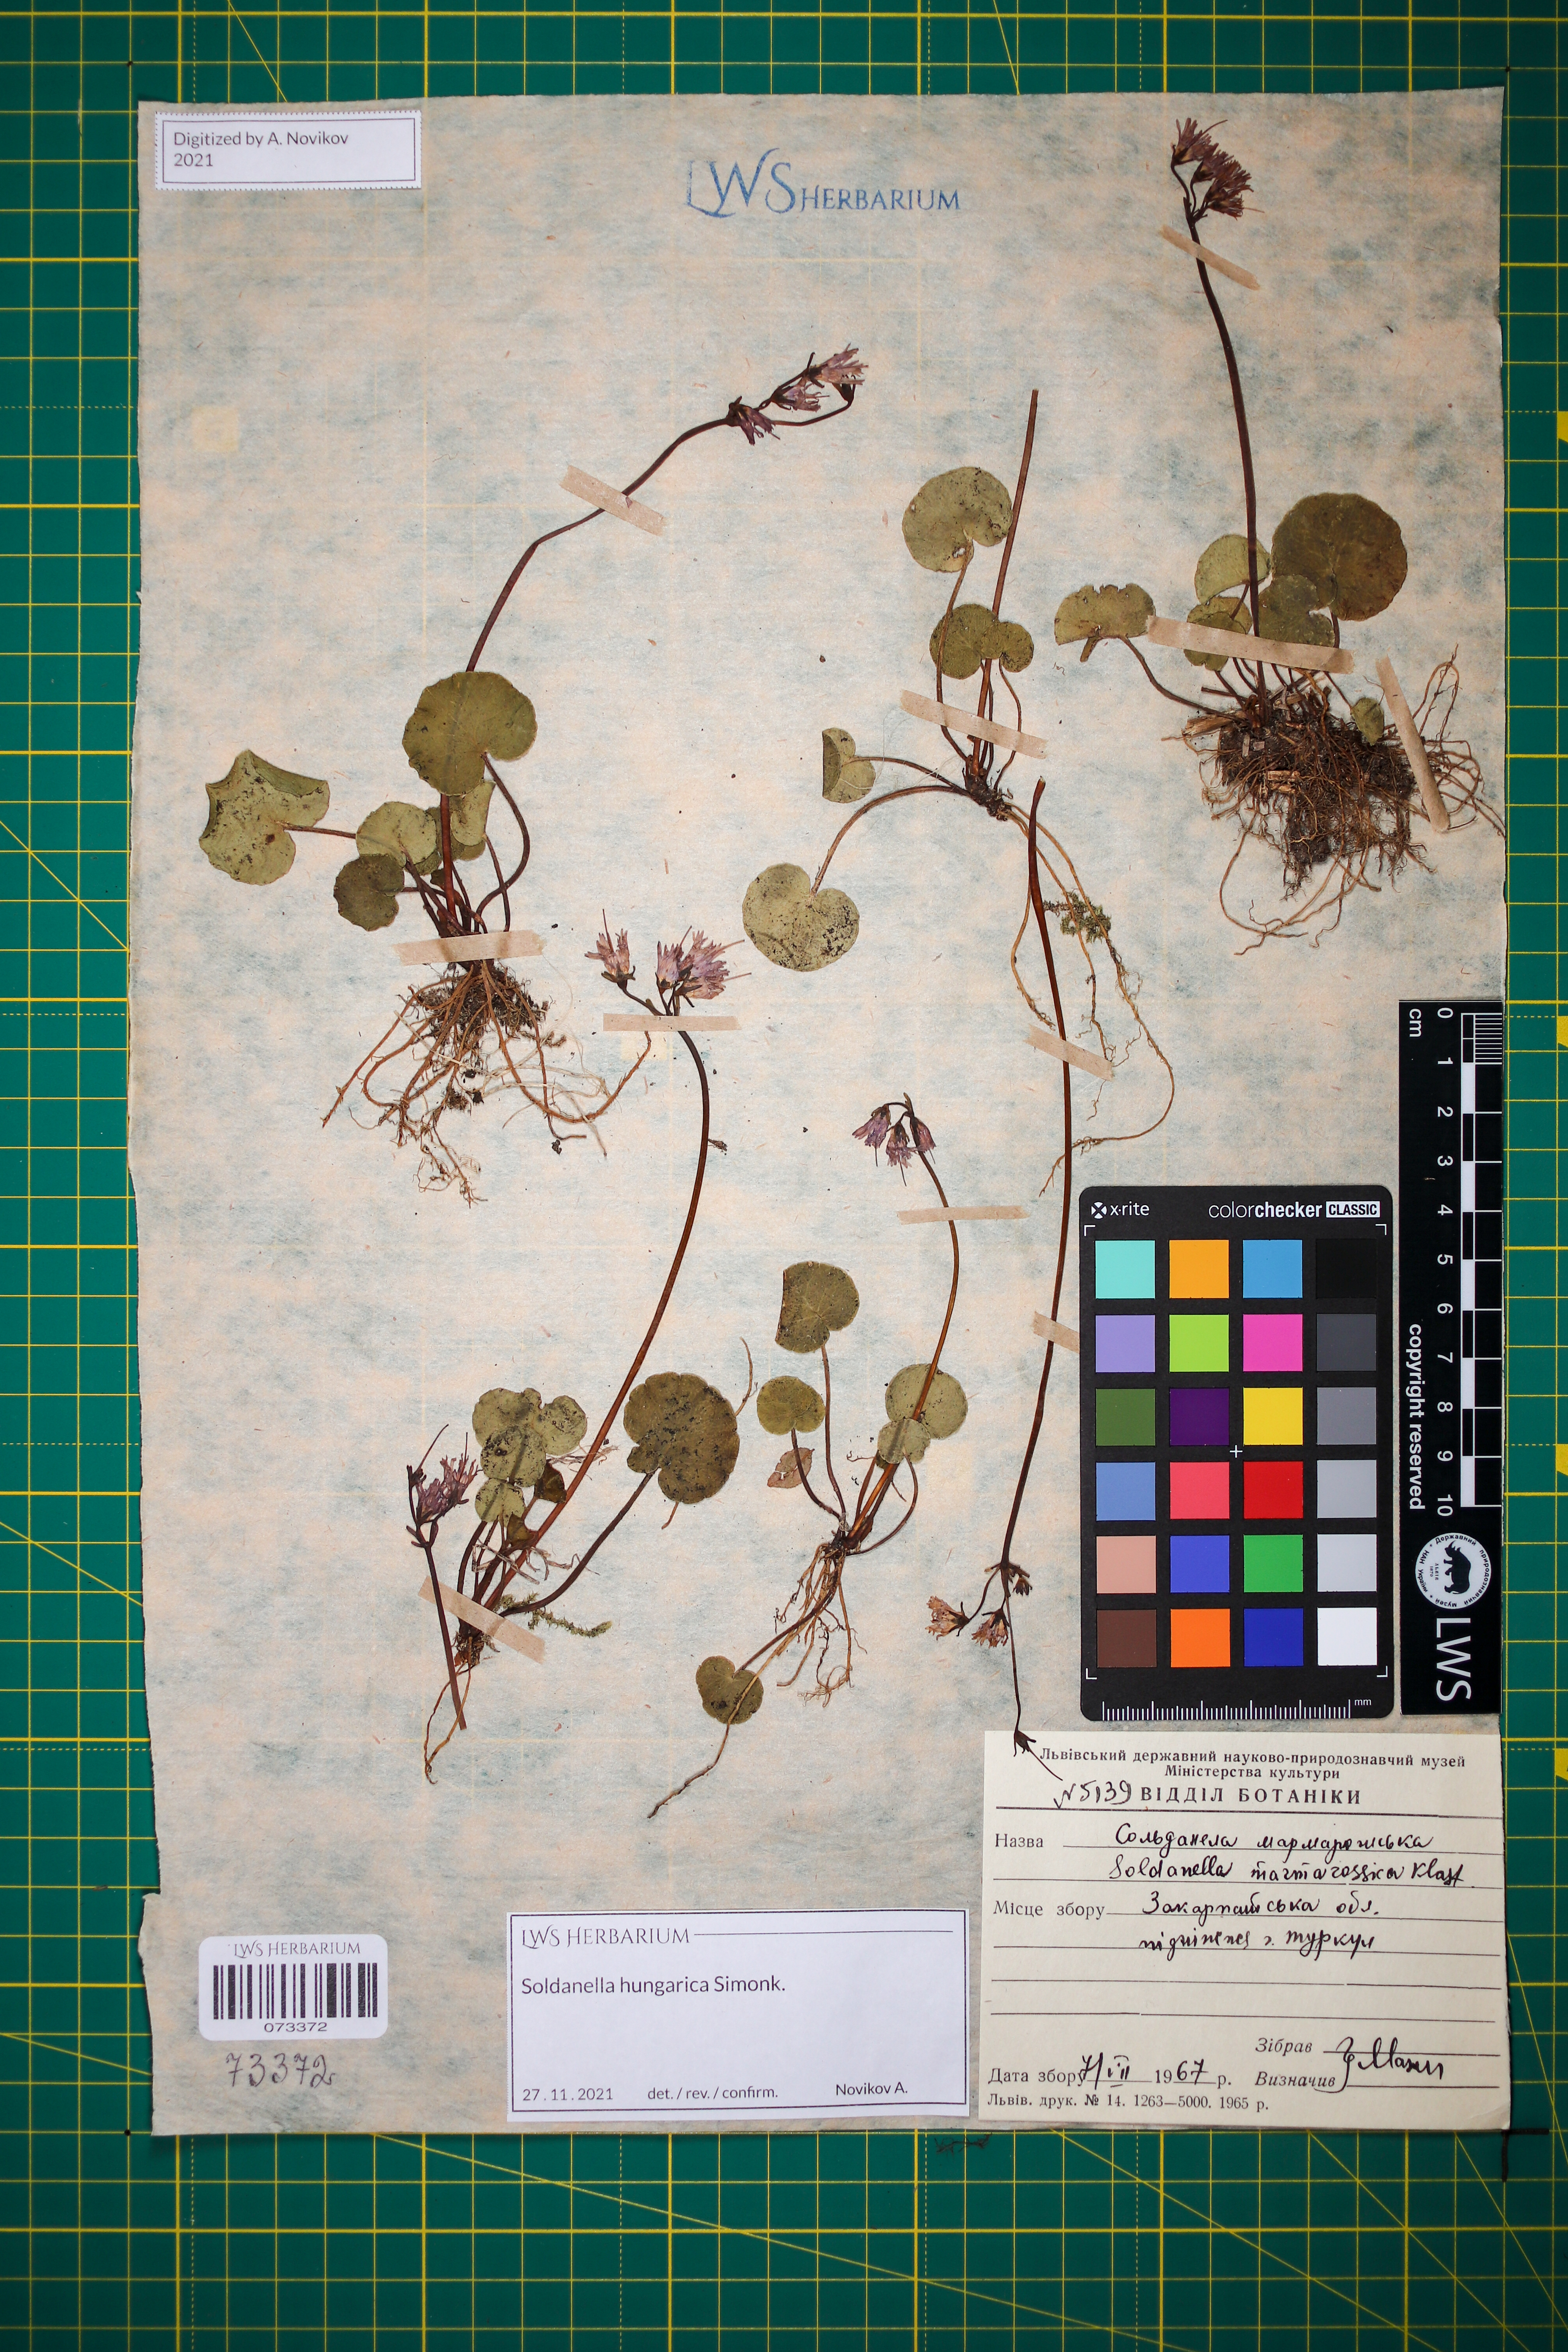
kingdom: Plantae
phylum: Tracheophyta
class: Magnoliopsida
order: Ericales
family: Primulaceae
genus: Soldanella
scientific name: Soldanella hungarica
